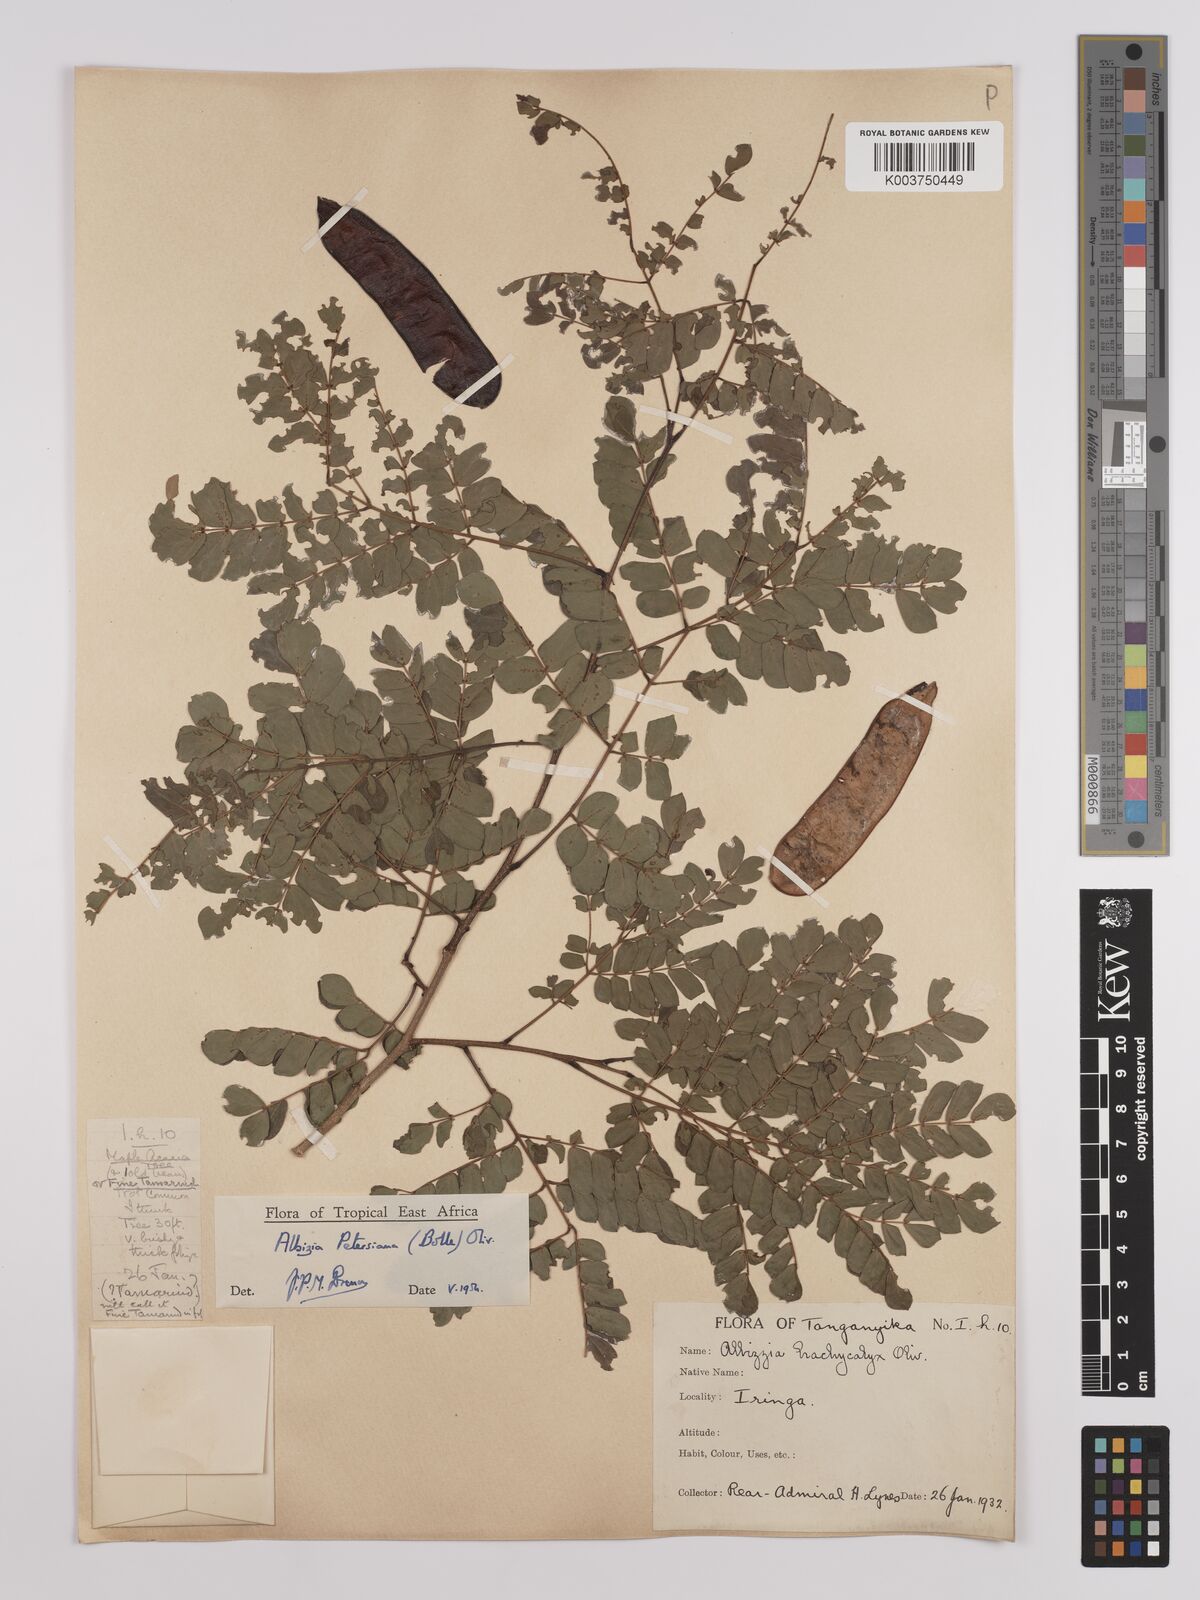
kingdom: Plantae
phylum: Tracheophyta
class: Magnoliopsida
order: Fabales
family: Fabaceae
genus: Albizia
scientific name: Albizia petersiana
